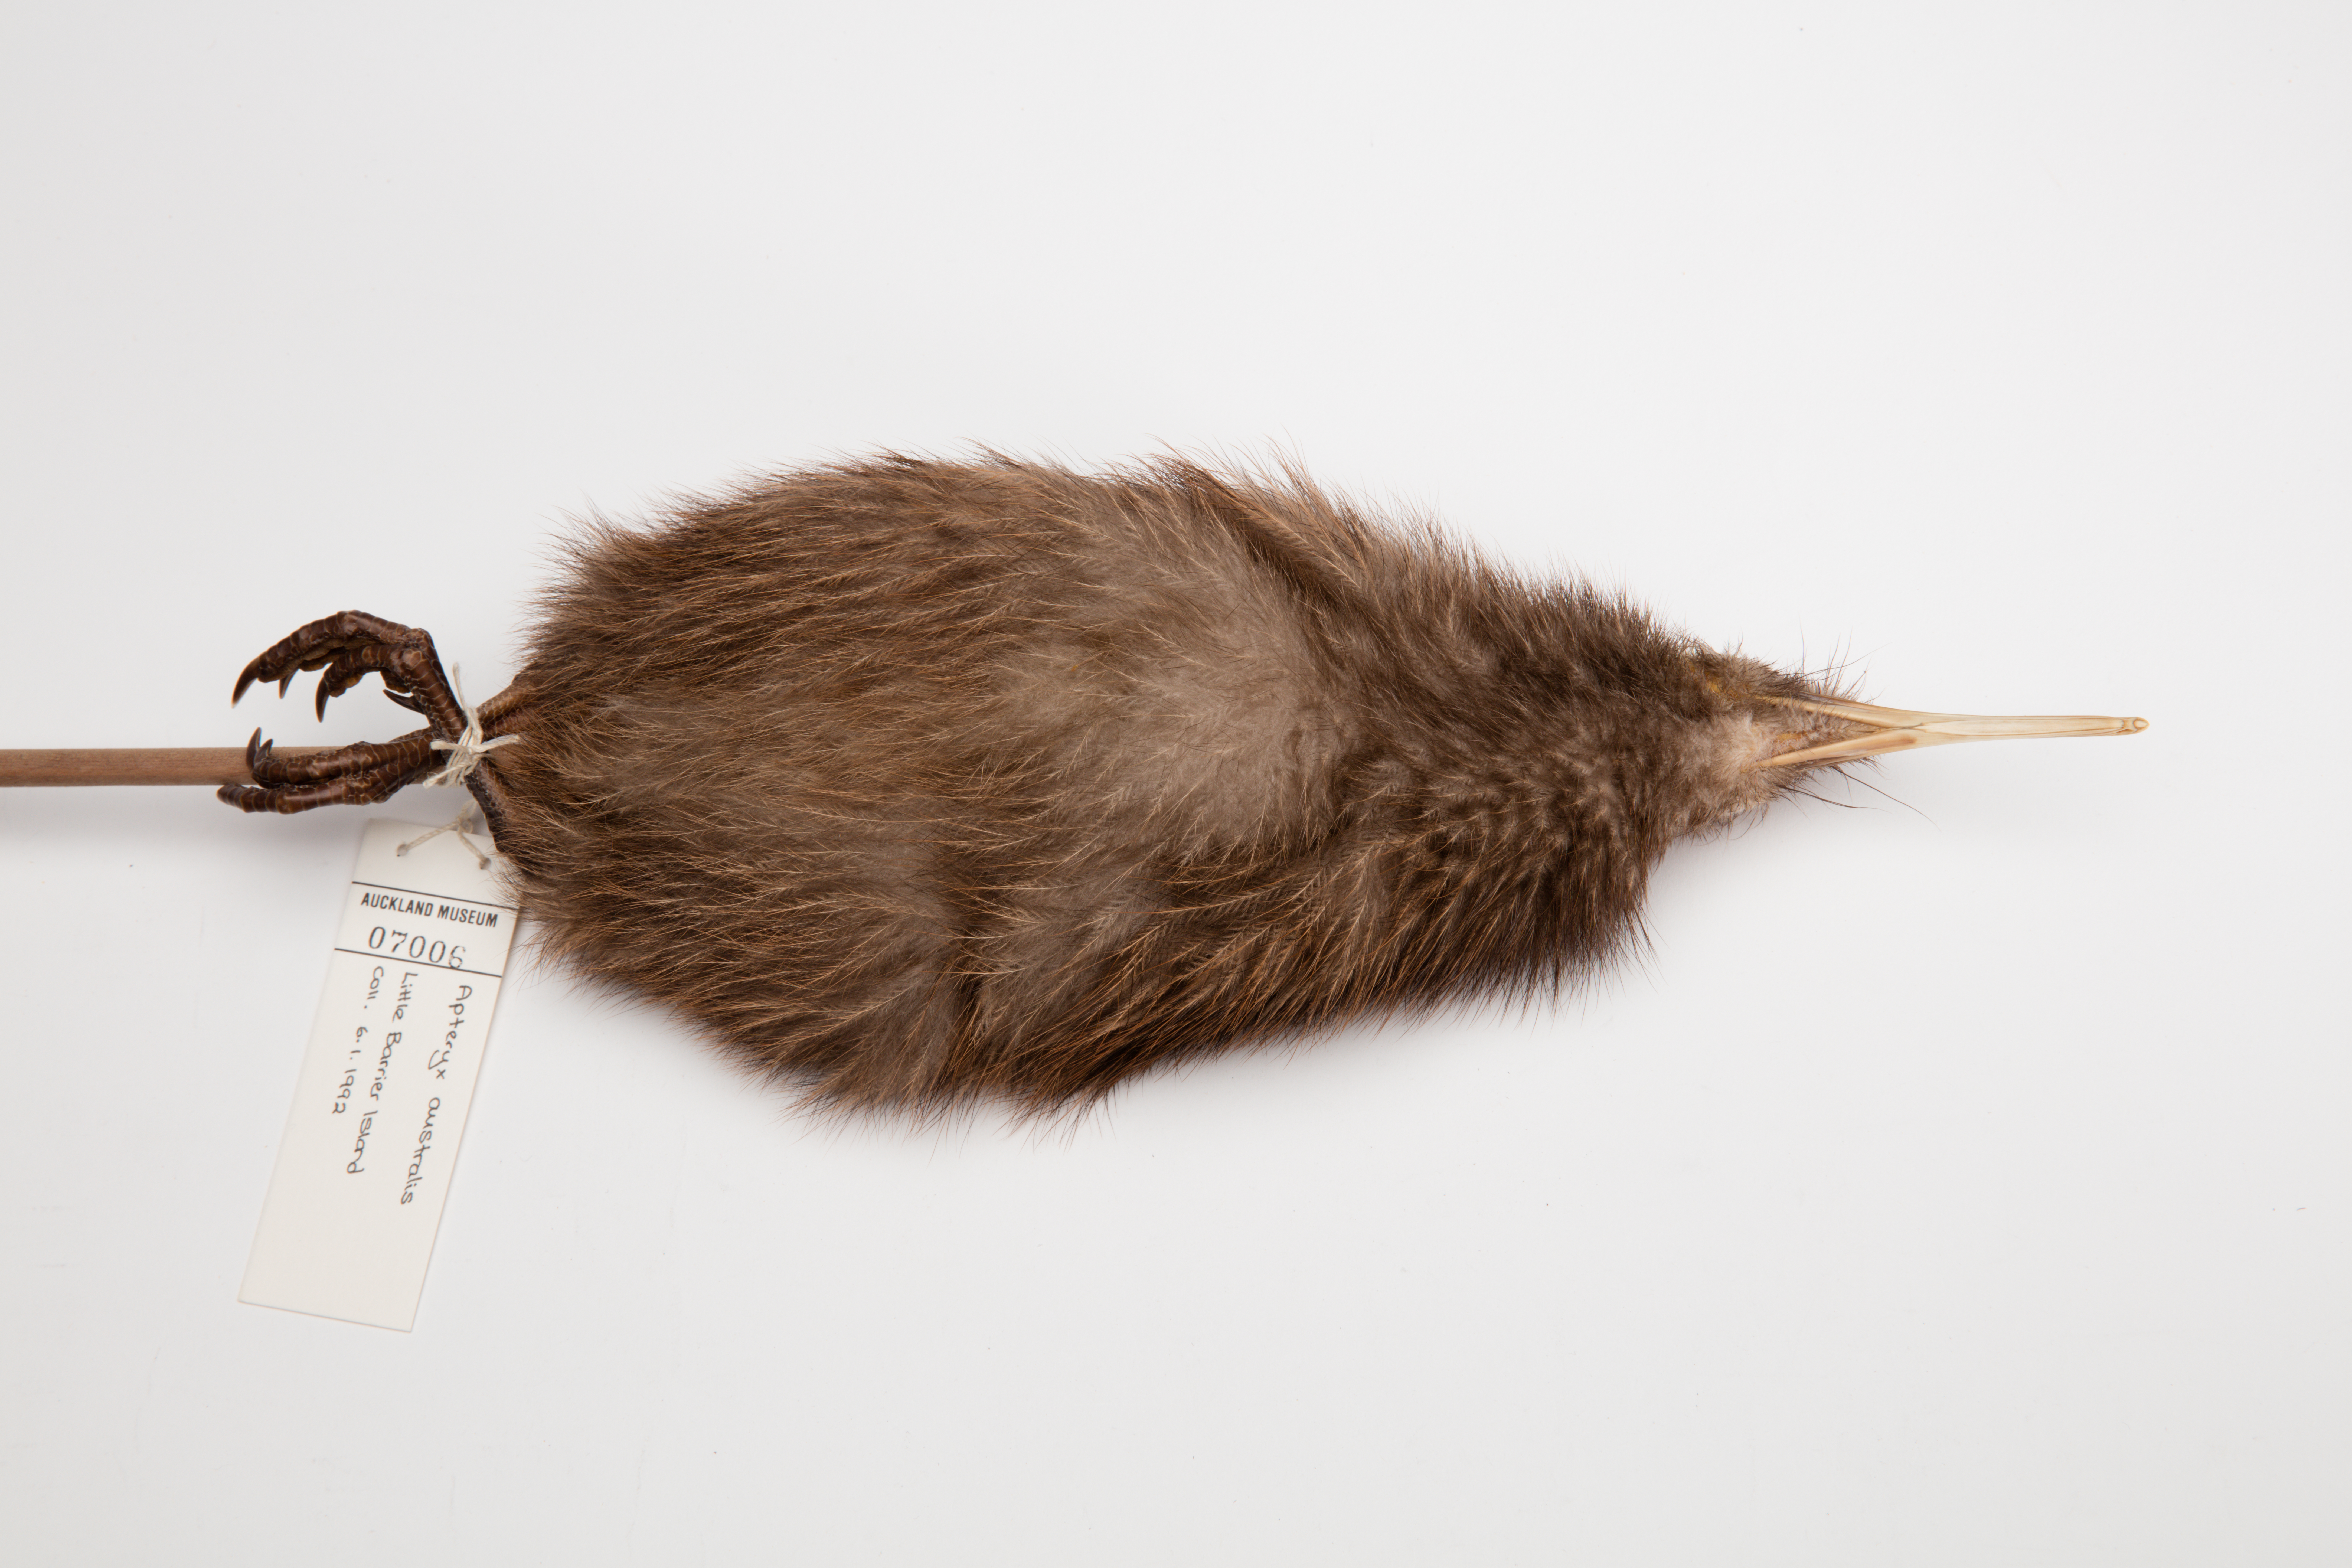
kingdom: Animalia
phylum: Chordata
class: Aves
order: Apterygiformes
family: Apterygidae
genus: Apteryx
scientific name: Apteryx mantelli
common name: North island brown kiwi
